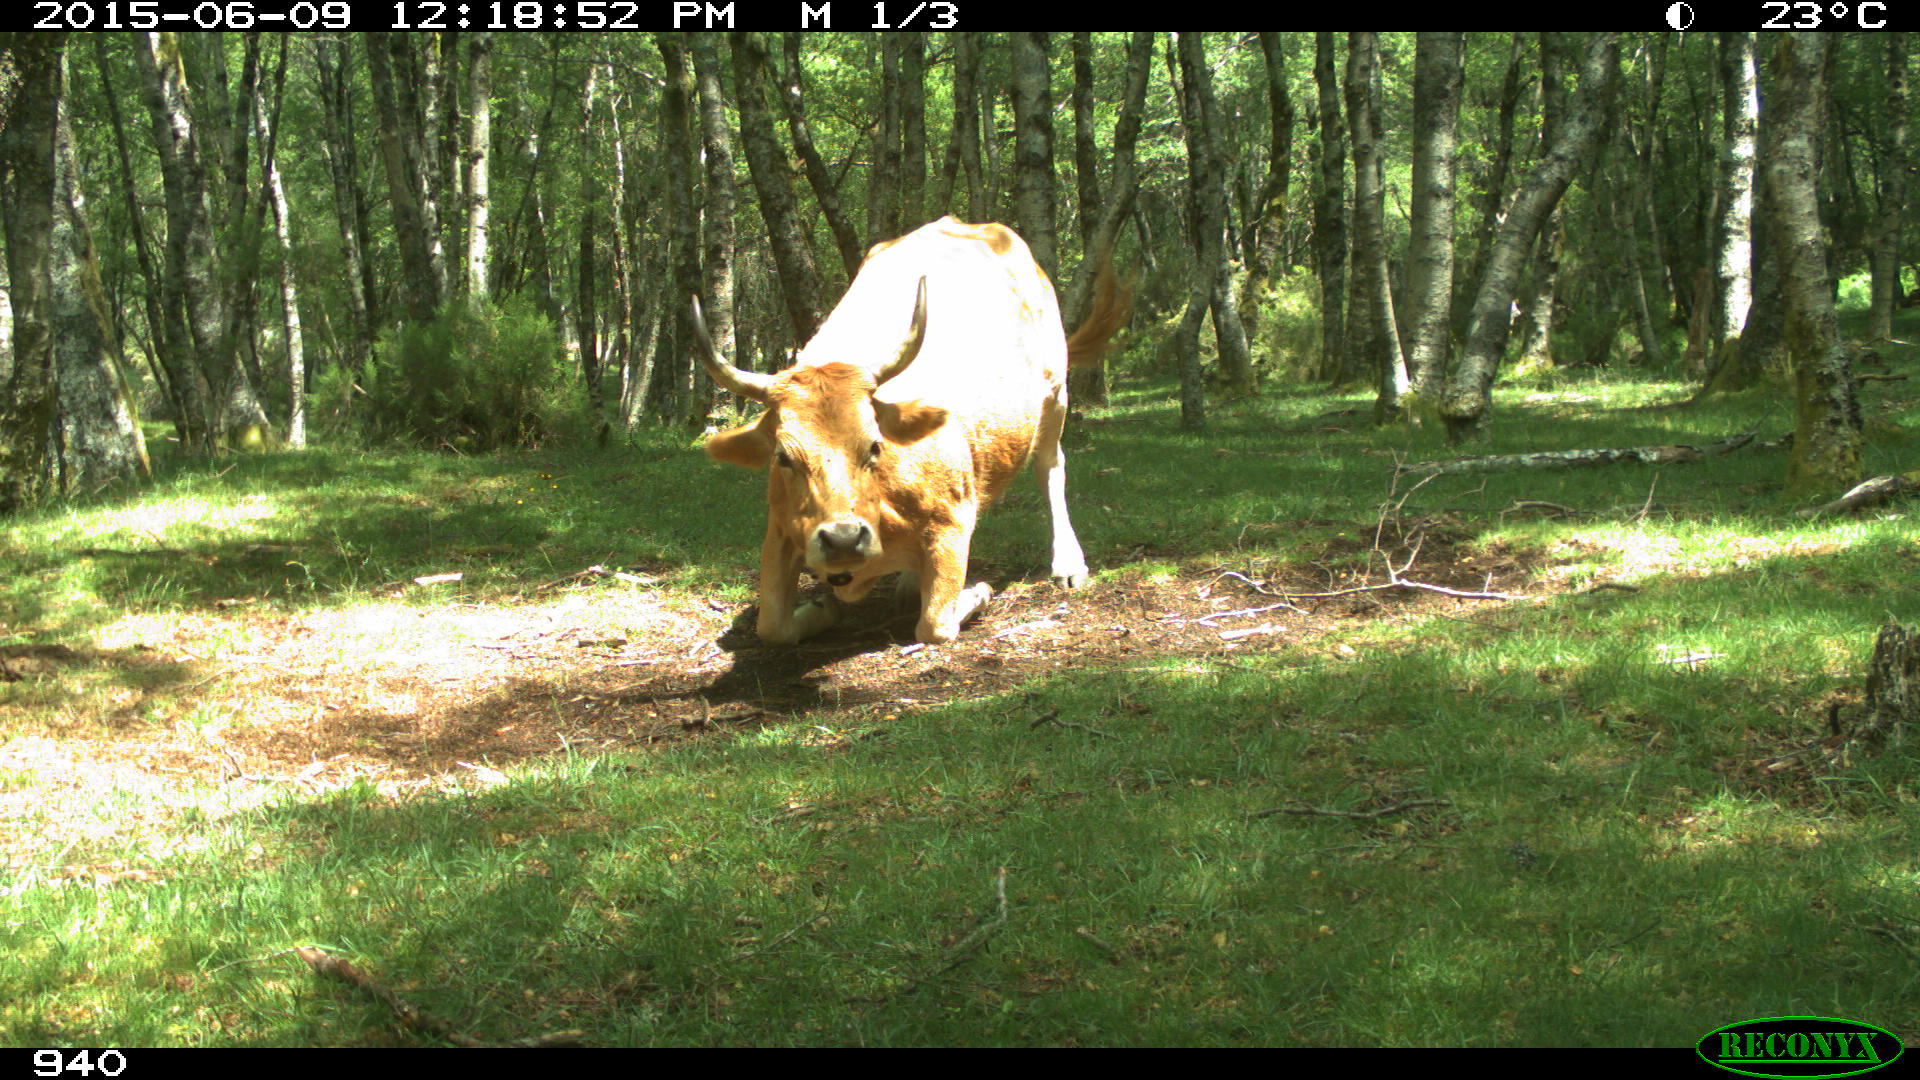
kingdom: Animalia
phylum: Chordata
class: Mammalia
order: Artiodactyla
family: Bovidae
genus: Bos
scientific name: Bos taurus
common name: Domesticated cattle
